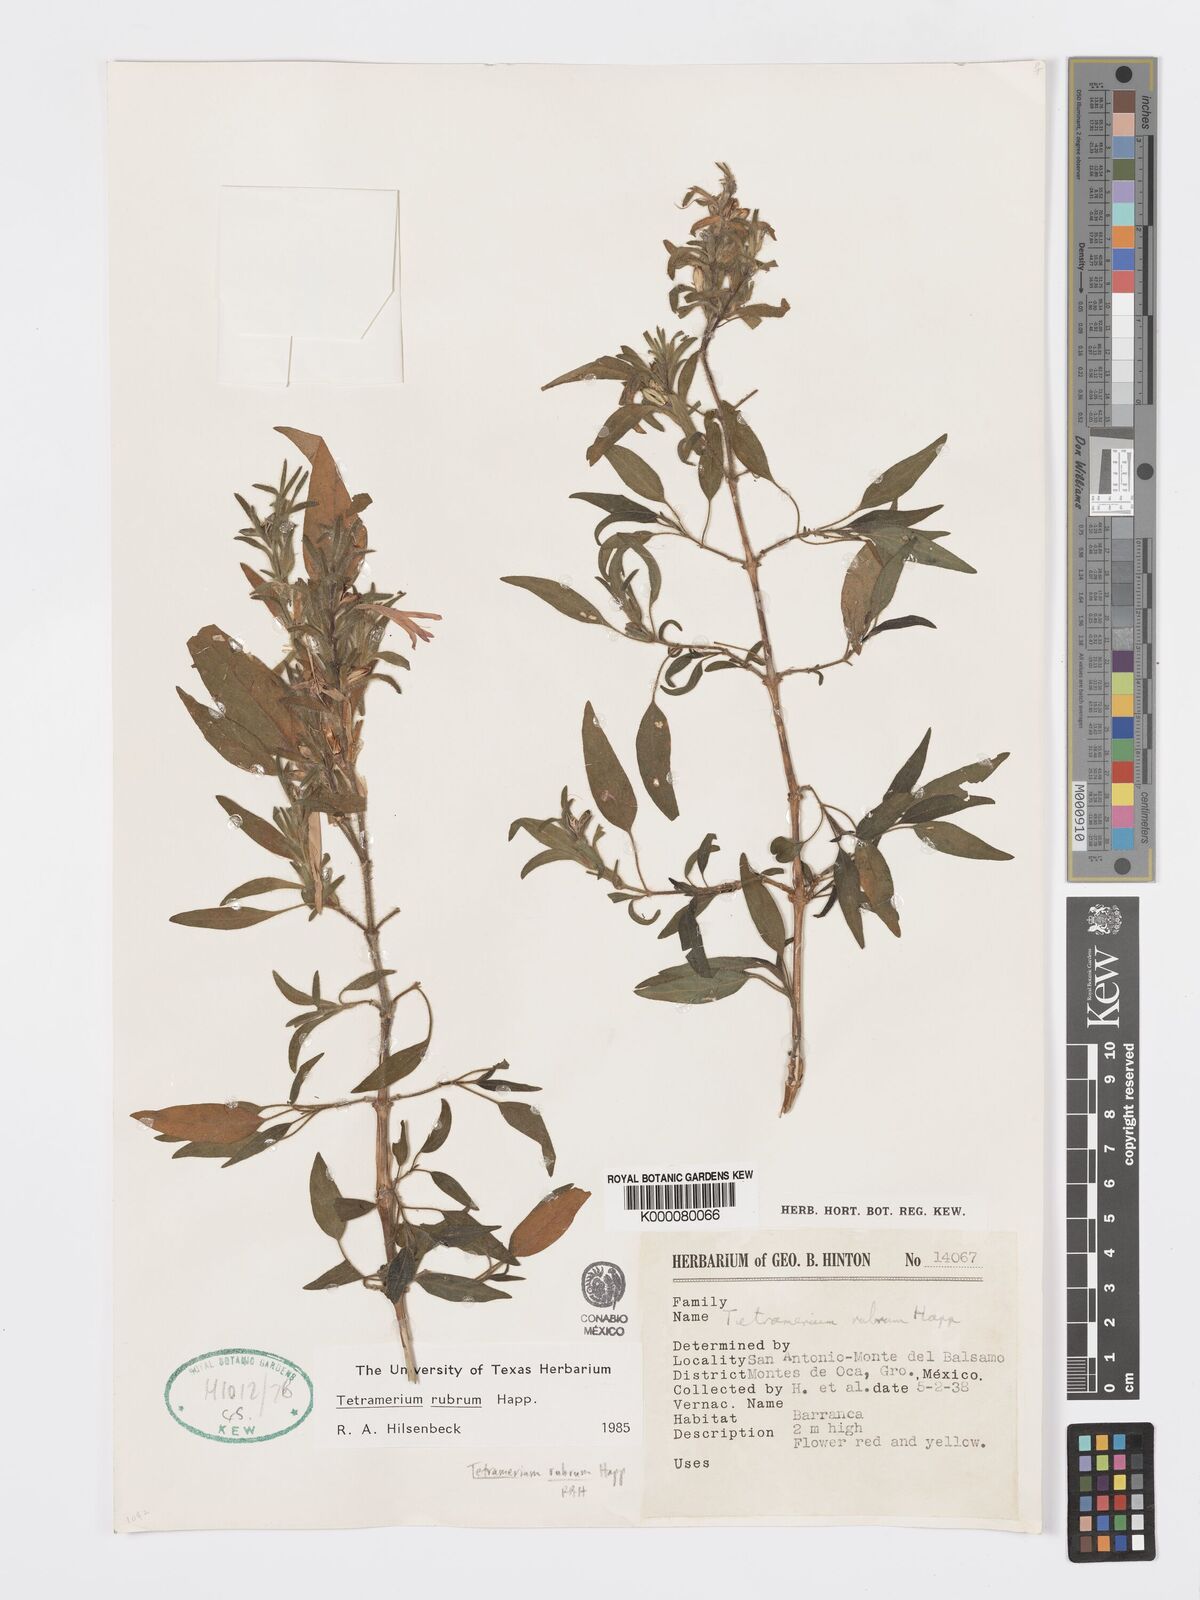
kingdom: Plantae
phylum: Tracheophyta
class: Magnoliopsida
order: Lamiales
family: Acanthaceae
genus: Tetramerium
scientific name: Tetramerium
